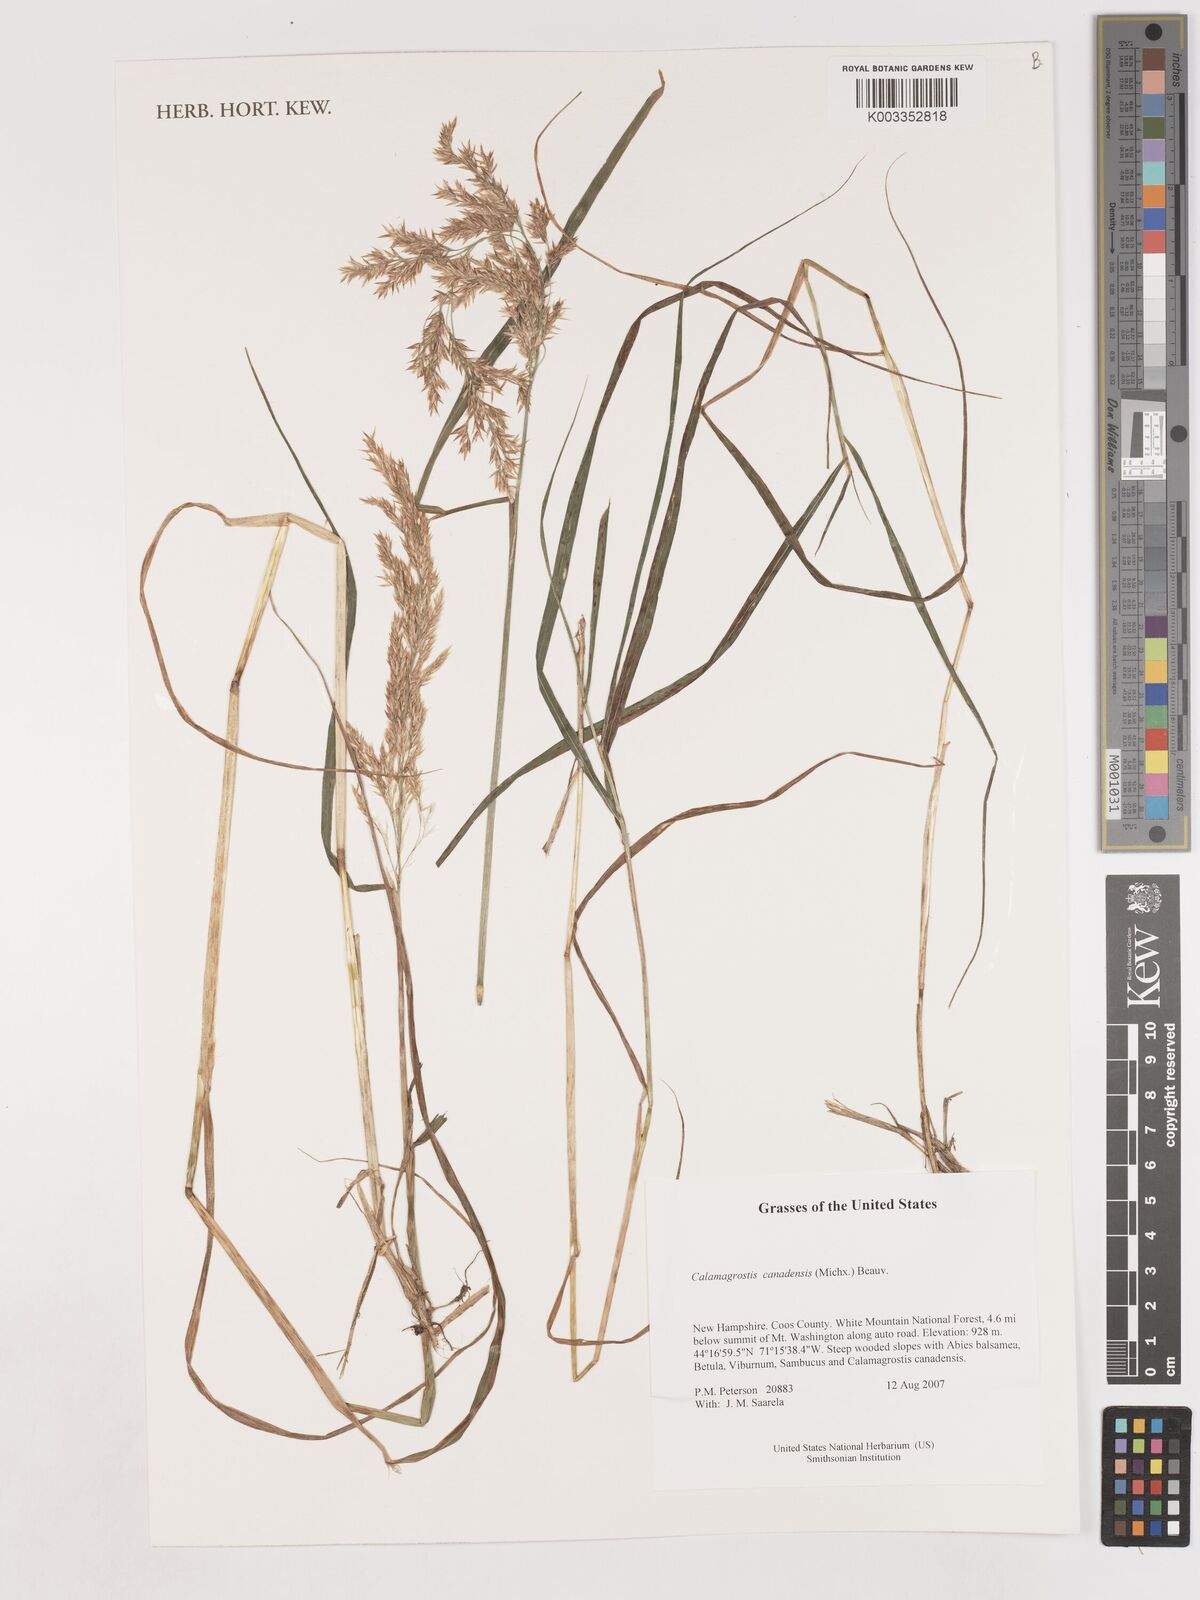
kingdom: Plantae
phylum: Tracheophyta
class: Liliopsida
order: Poales
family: Poaceae
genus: Calamagrostis
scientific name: Calamagrostis canadensis
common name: Canada bluejoint
